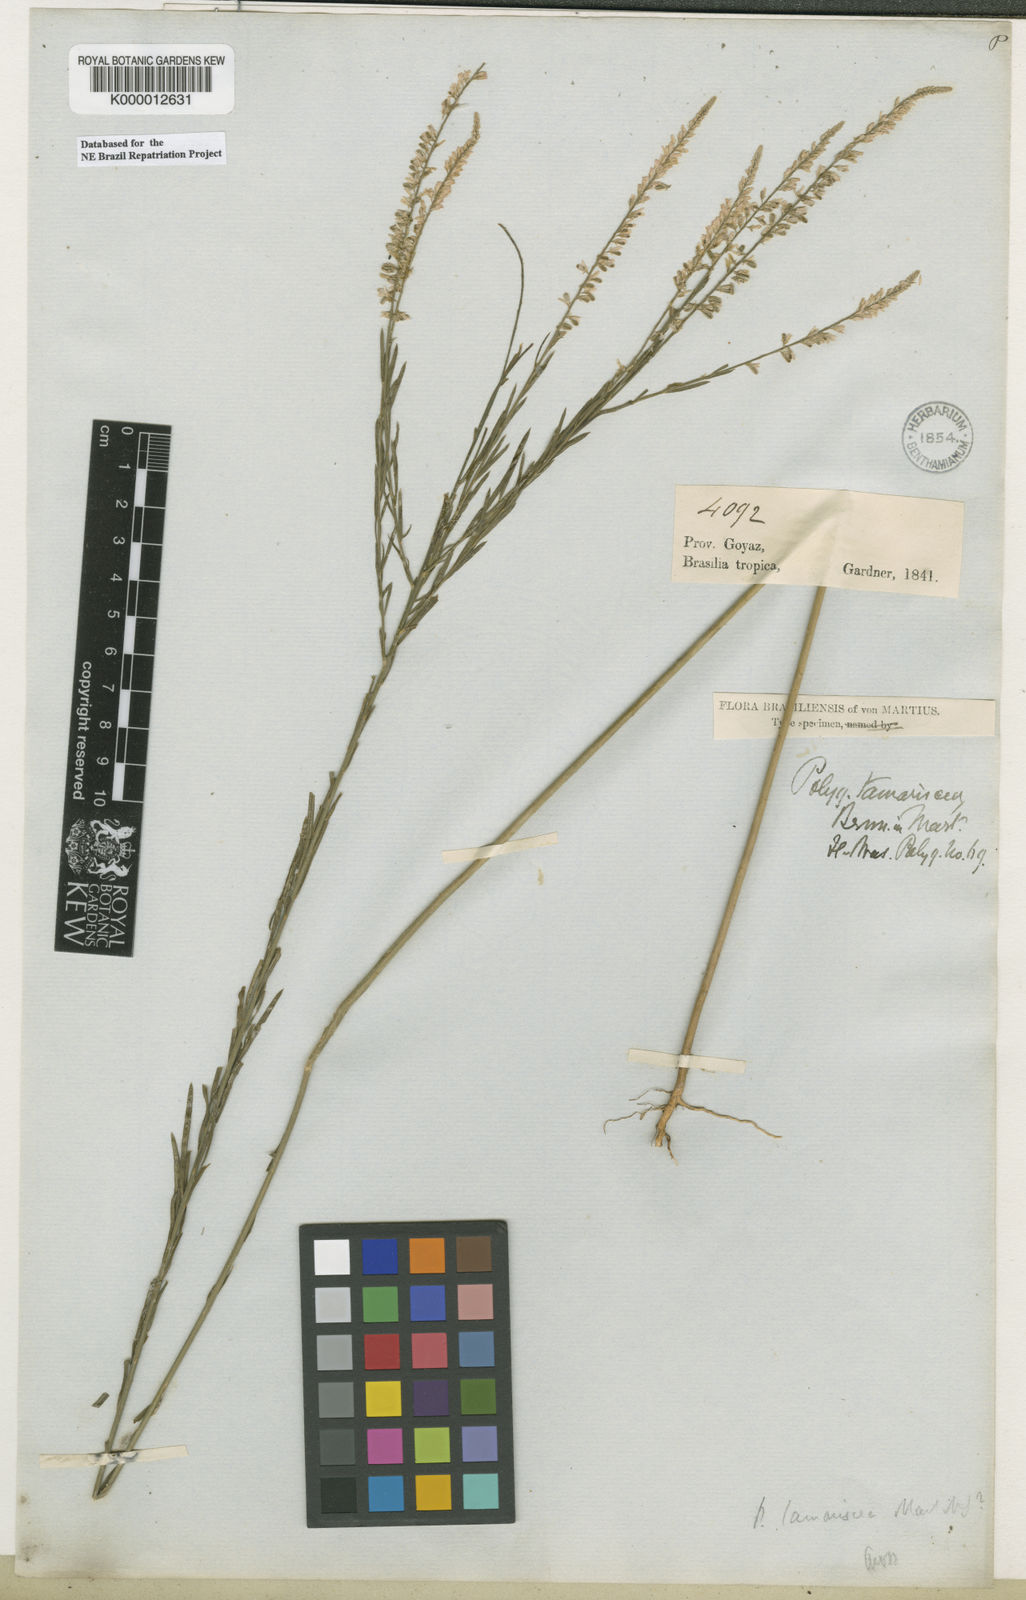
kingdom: Plantae
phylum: Tracheophyta
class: Magnoliopsida
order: Fabales
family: Polygalaceae
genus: Polygala
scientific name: Polygala tamariscea
